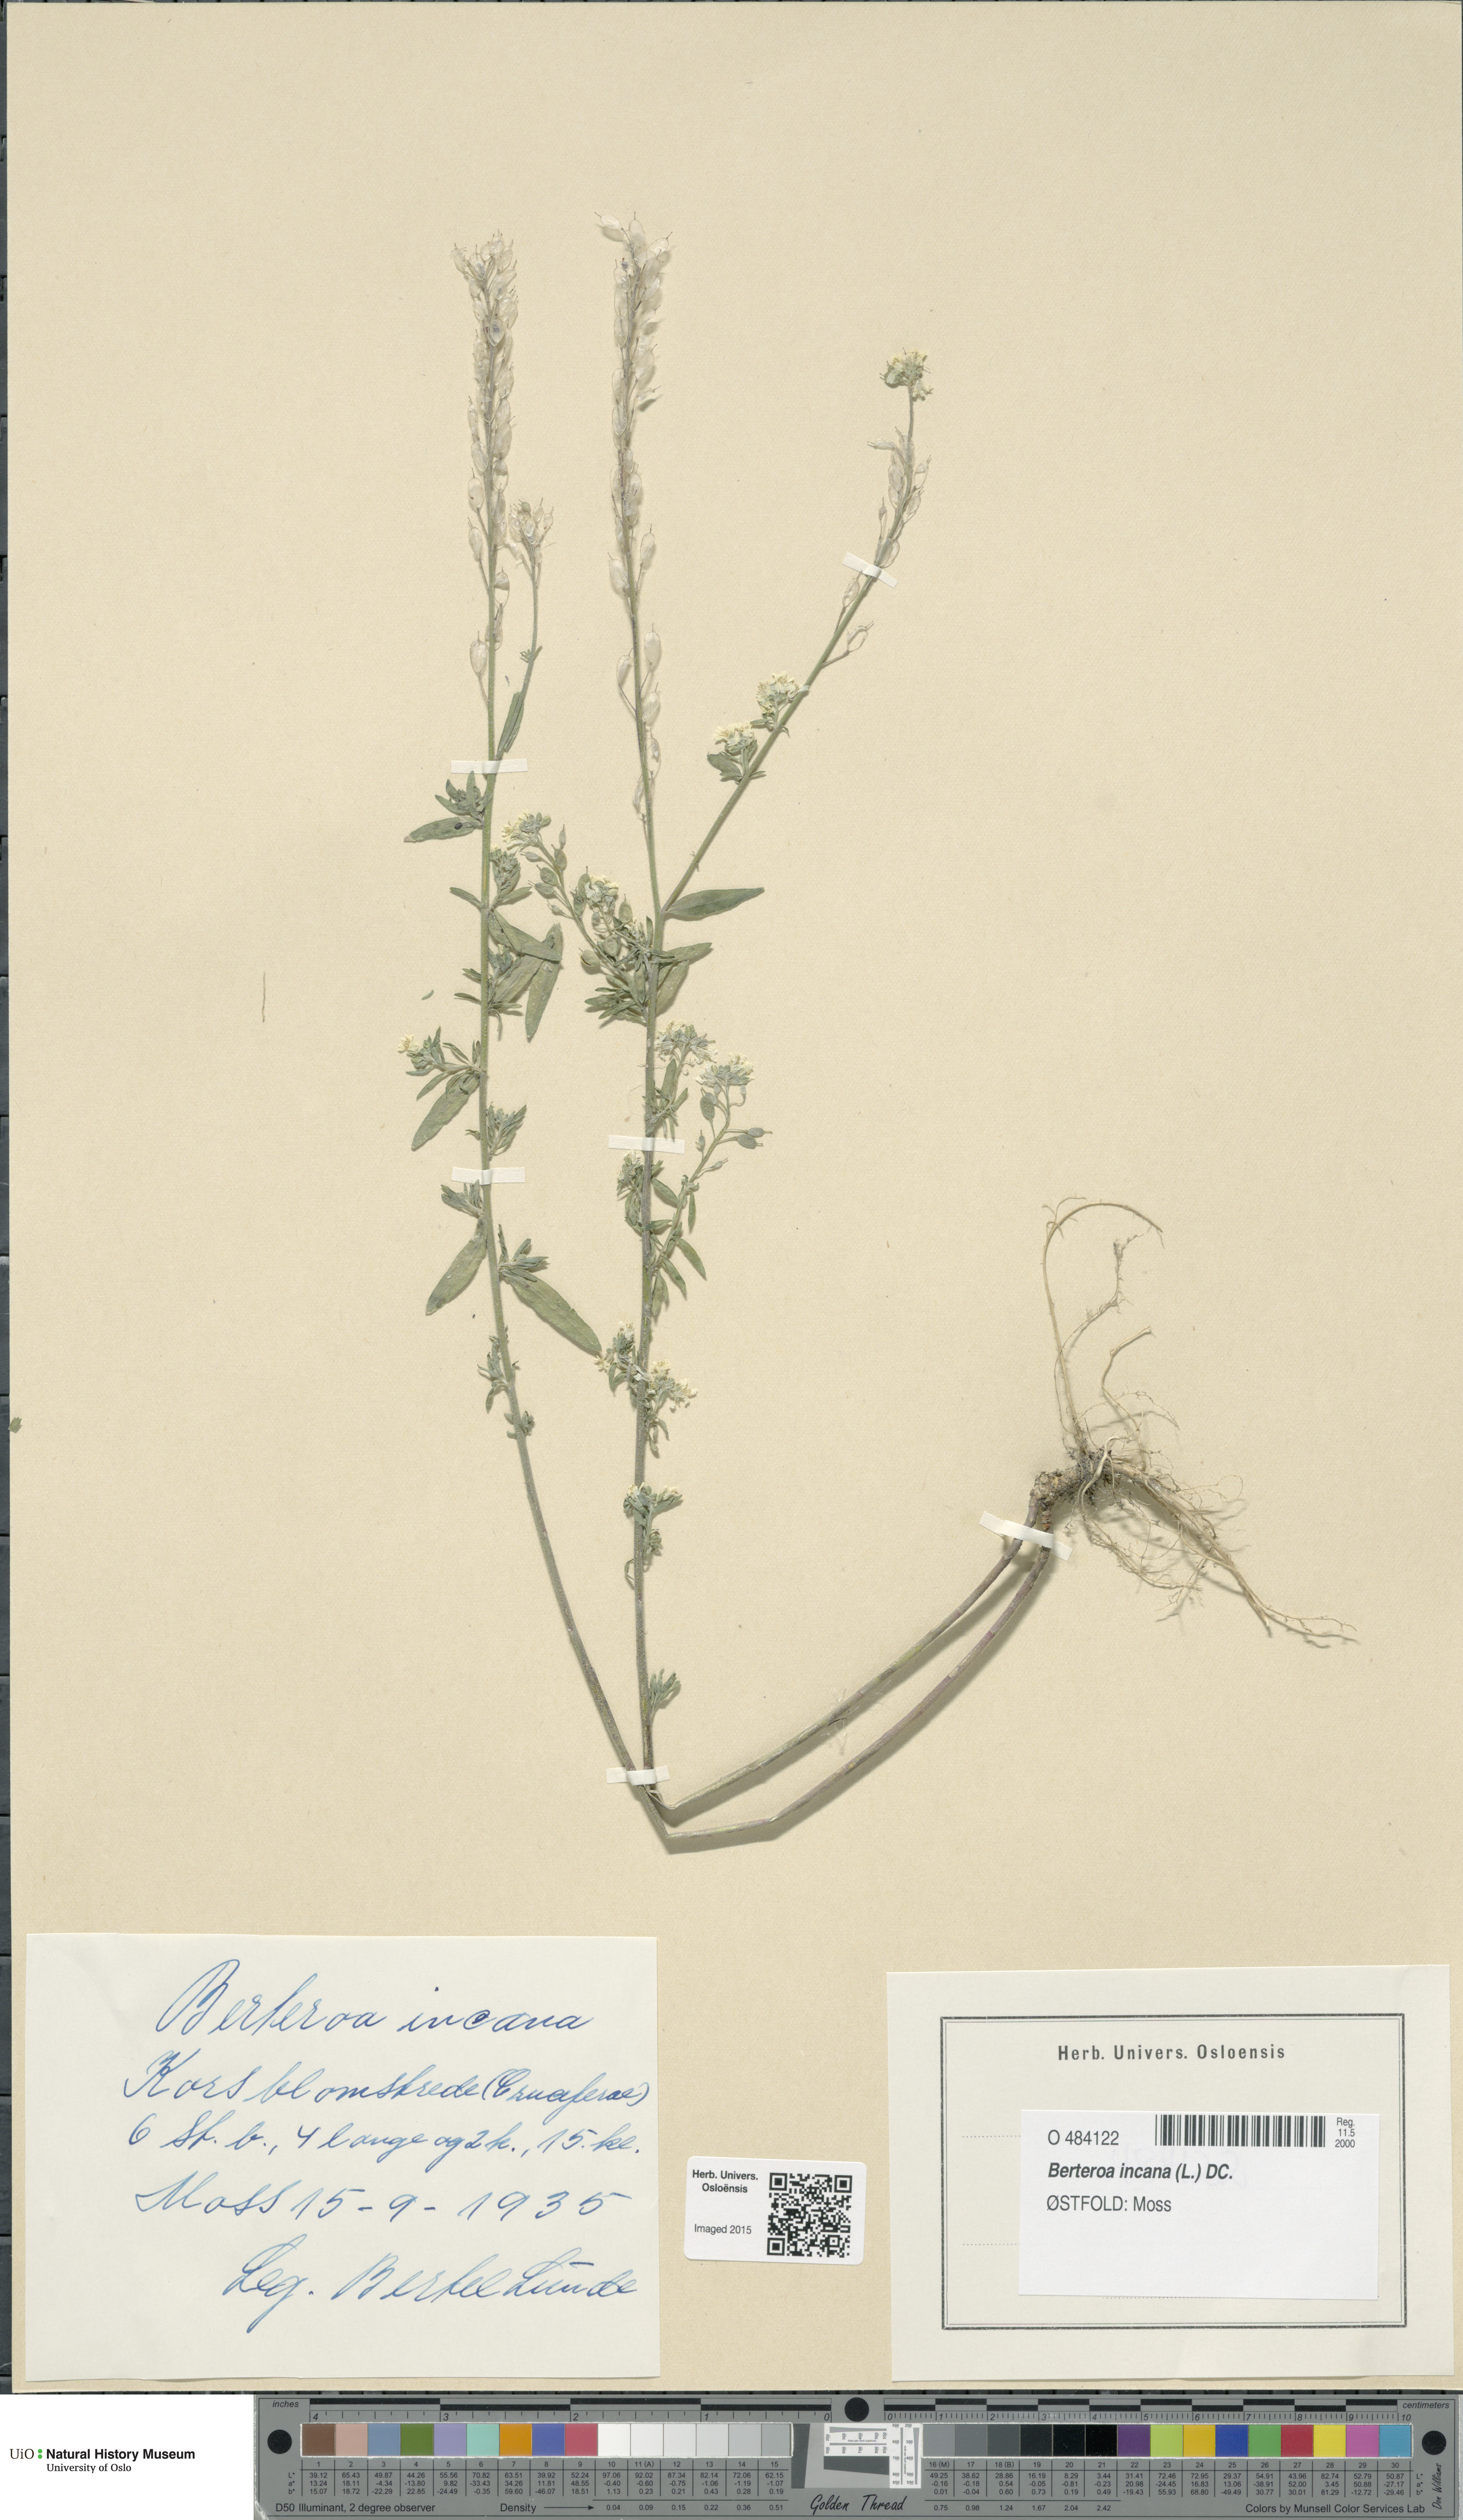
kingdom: Plantae
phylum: Tracheophyta
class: Magnoliopsida
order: Brassicales
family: Brassicaceae
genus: Berteroa
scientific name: Berteroa incana
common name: Hoary alison
